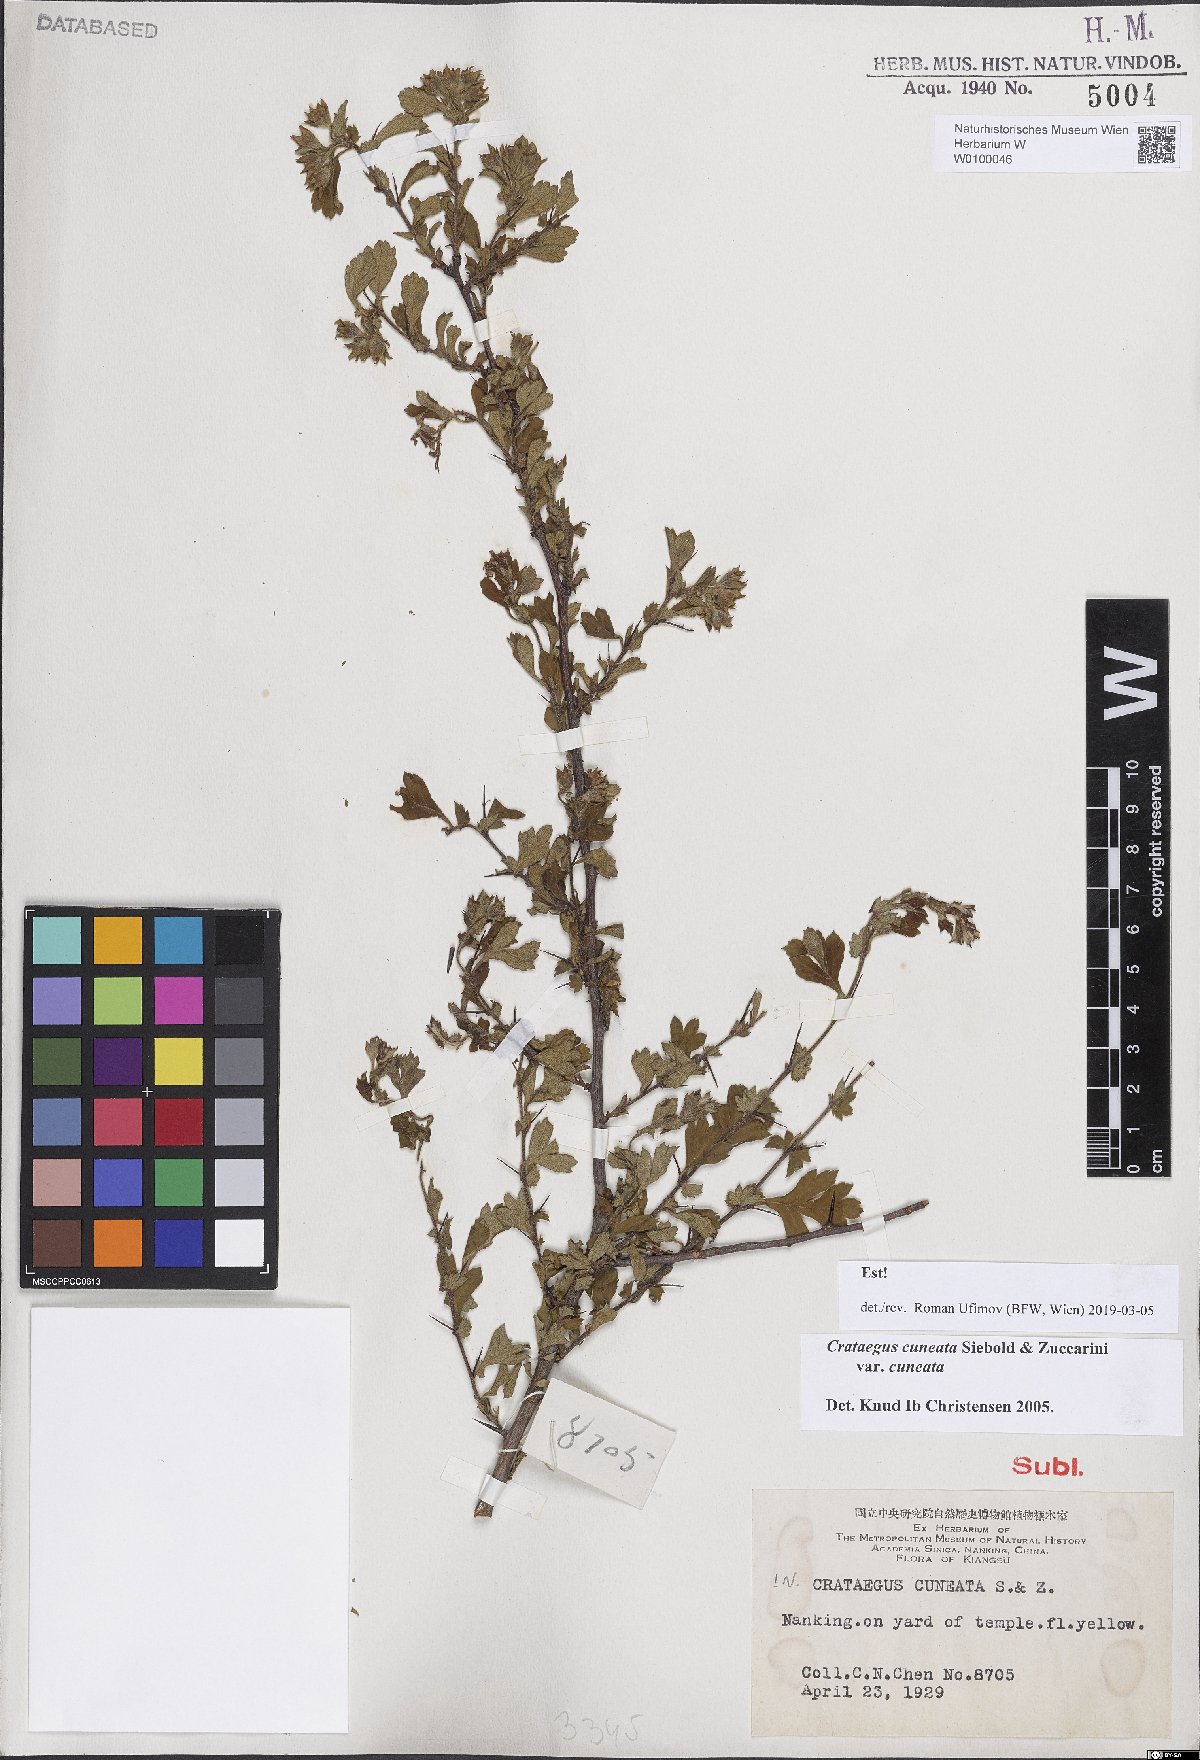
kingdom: Plantae
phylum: Tracheophyta
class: Magnoliopsida
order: Rosales
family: Rosaceae
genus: Crataegus
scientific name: Crataegus cuneata
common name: Chinese hawthorn
